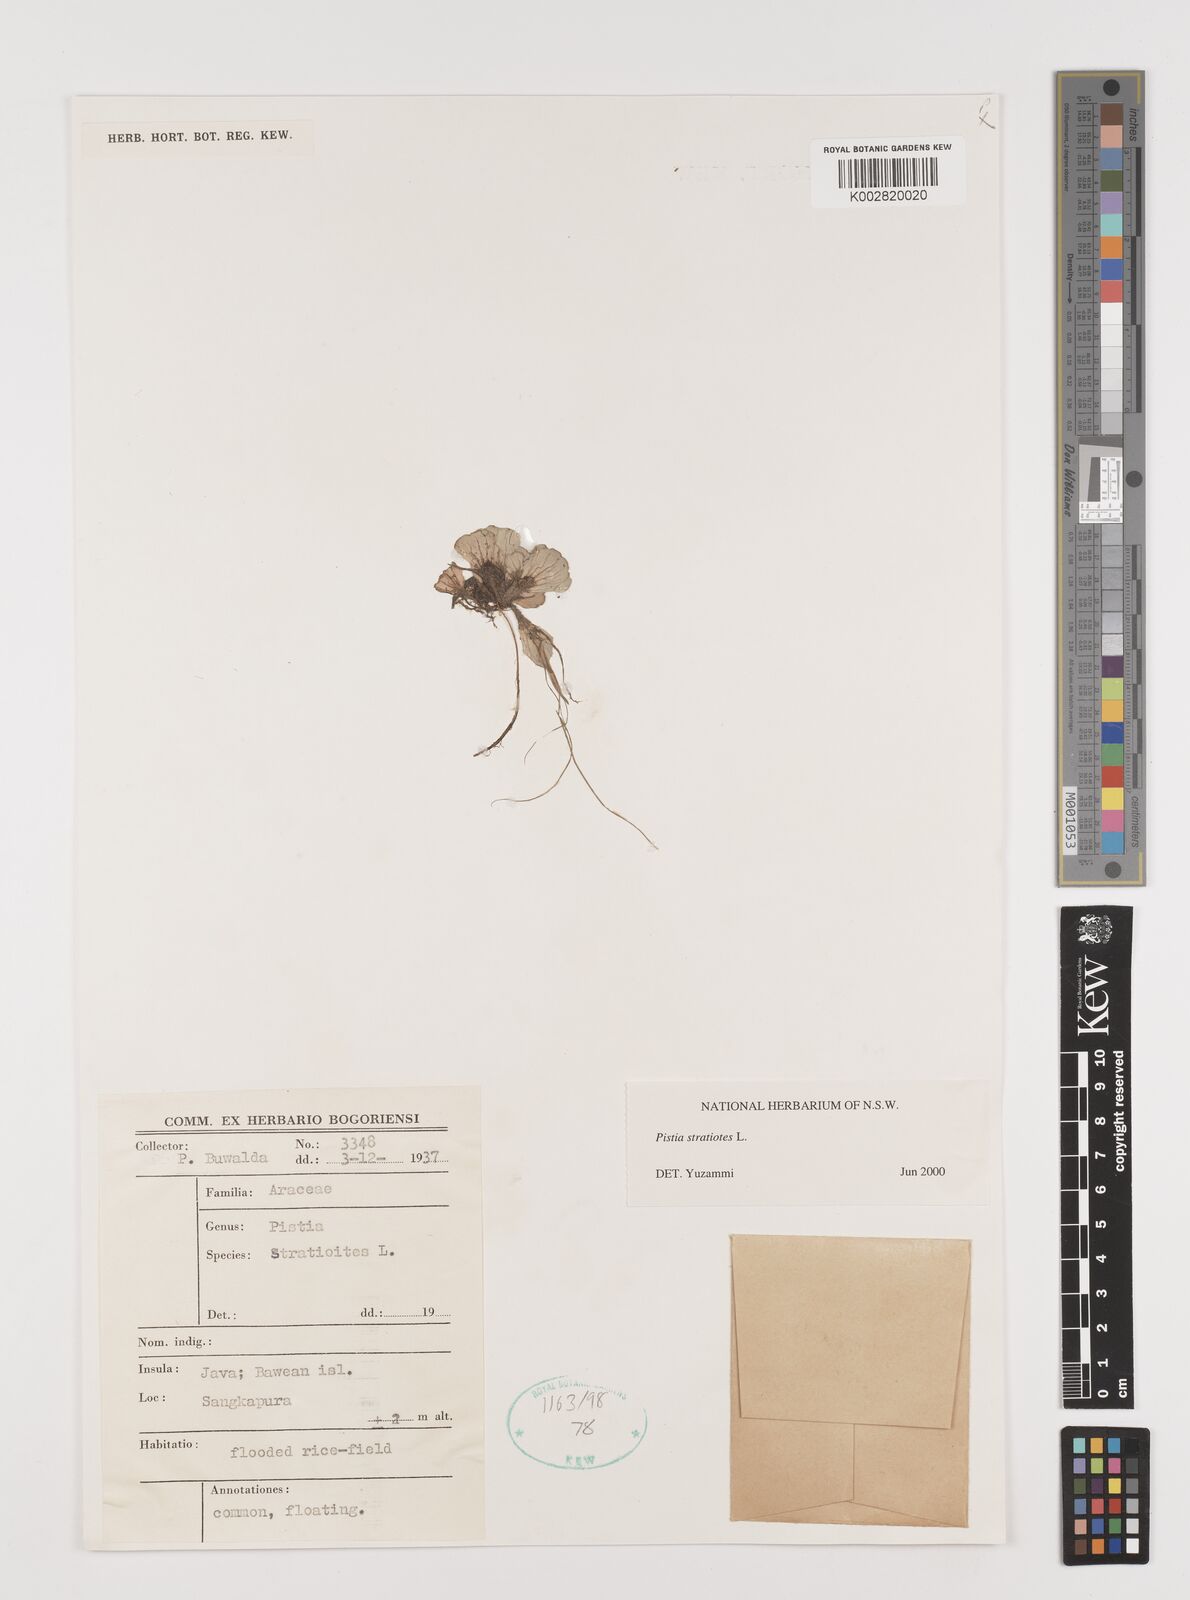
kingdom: Plantae
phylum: Tracheophyta
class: Liliopsida
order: Alismatales
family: Araceae
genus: Pistia
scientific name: Pistia stratiotes
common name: Water lettuce
